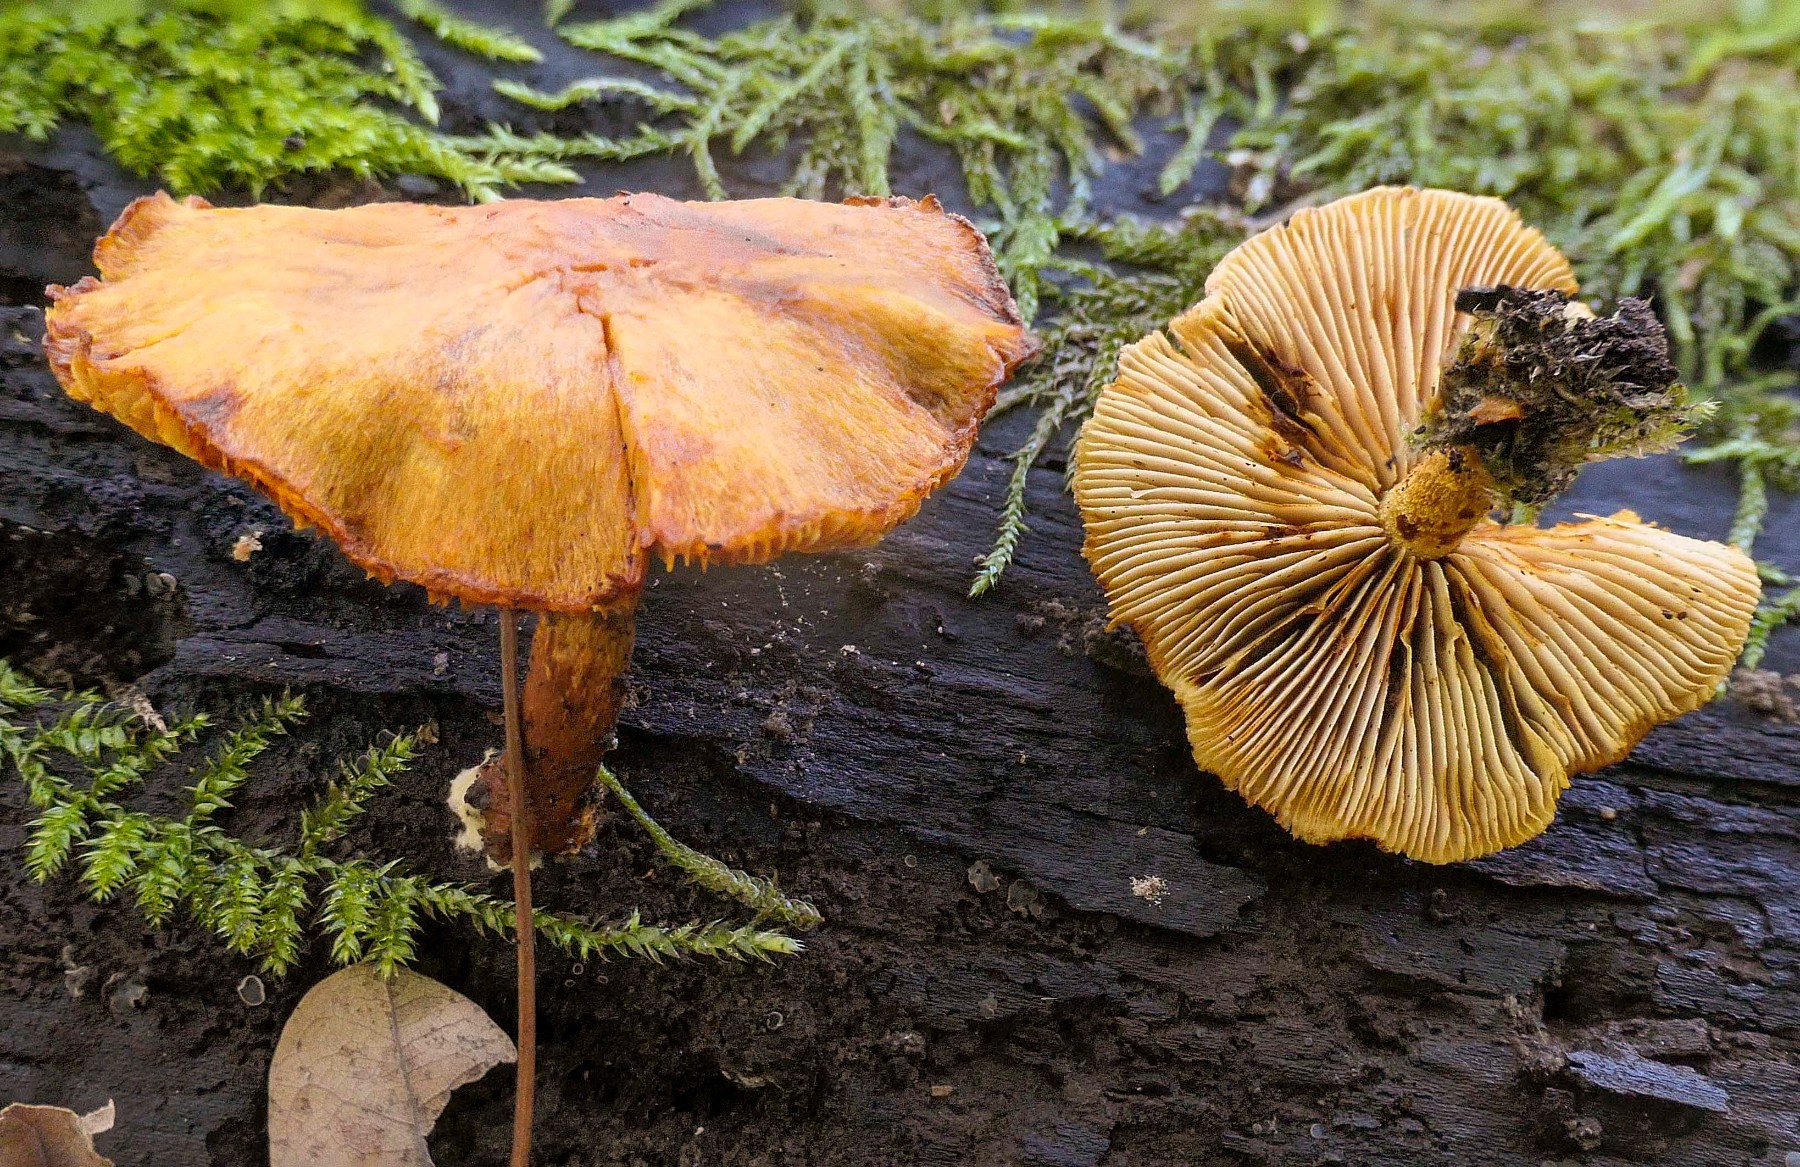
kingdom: Fungi
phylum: Basidiomycota
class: Agaricomycetes
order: Agaricales
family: Strophariaceae
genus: Pholiota
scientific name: Pholiota tuberculosa
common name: finskællet skælhat
